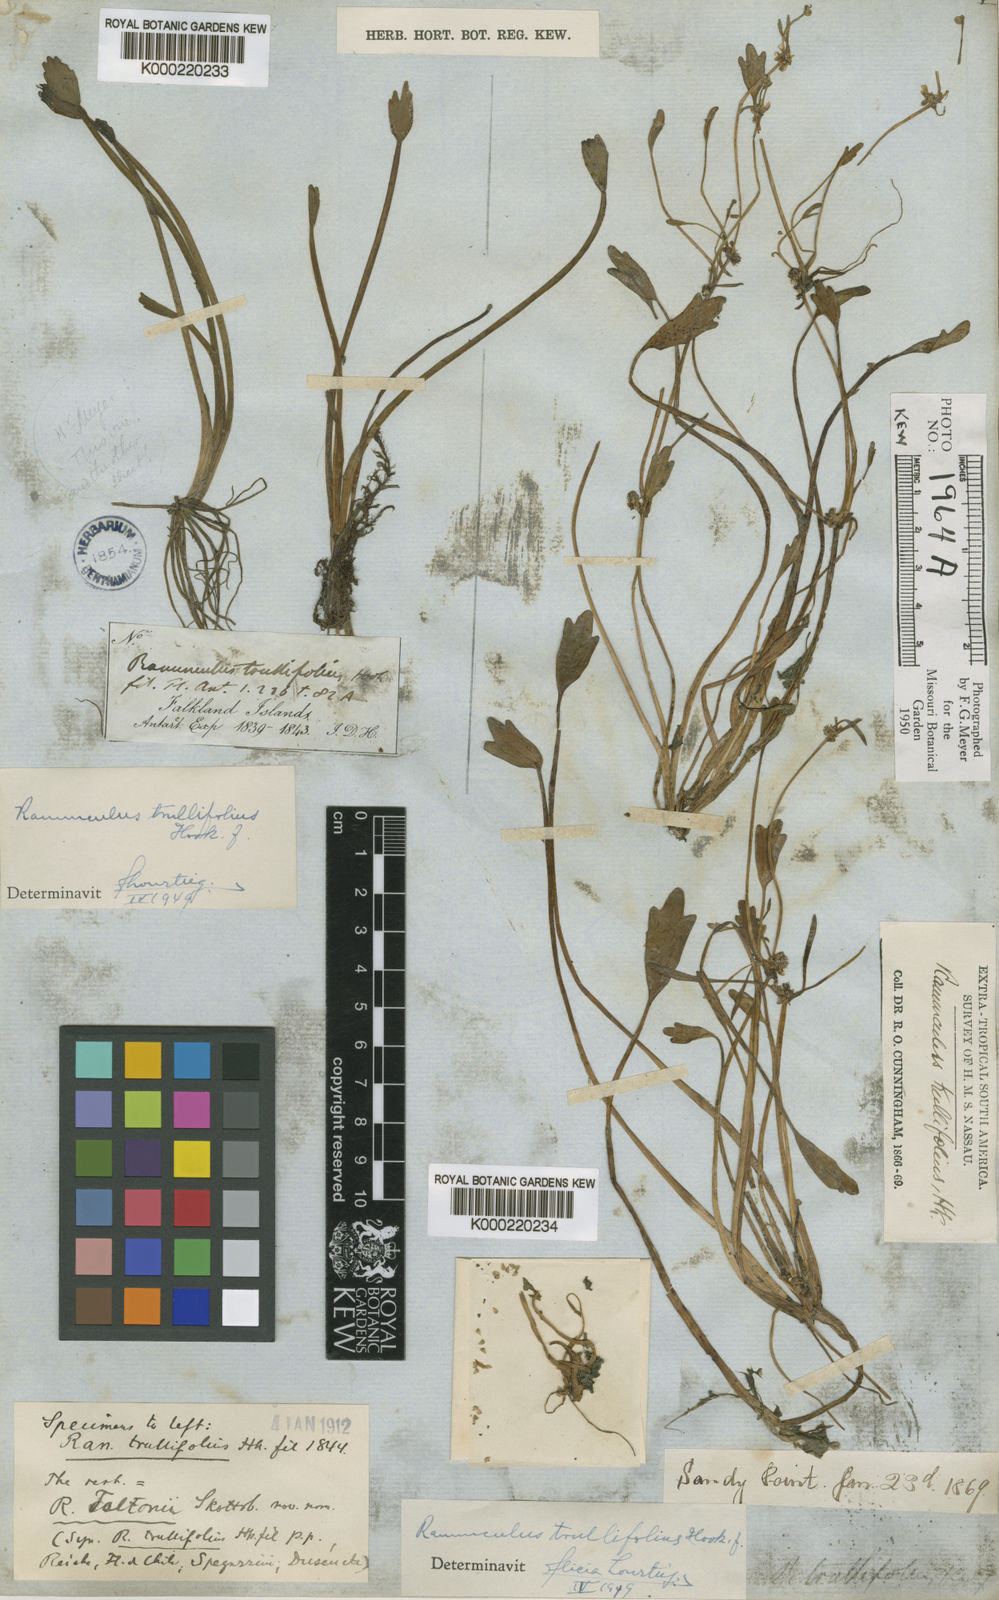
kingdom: Plantae
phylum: Tracheophyta
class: Magnoliopsida
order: Ranunculales
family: Ranunculaceae
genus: Ranunculus
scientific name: Ranunculus trullifolius
